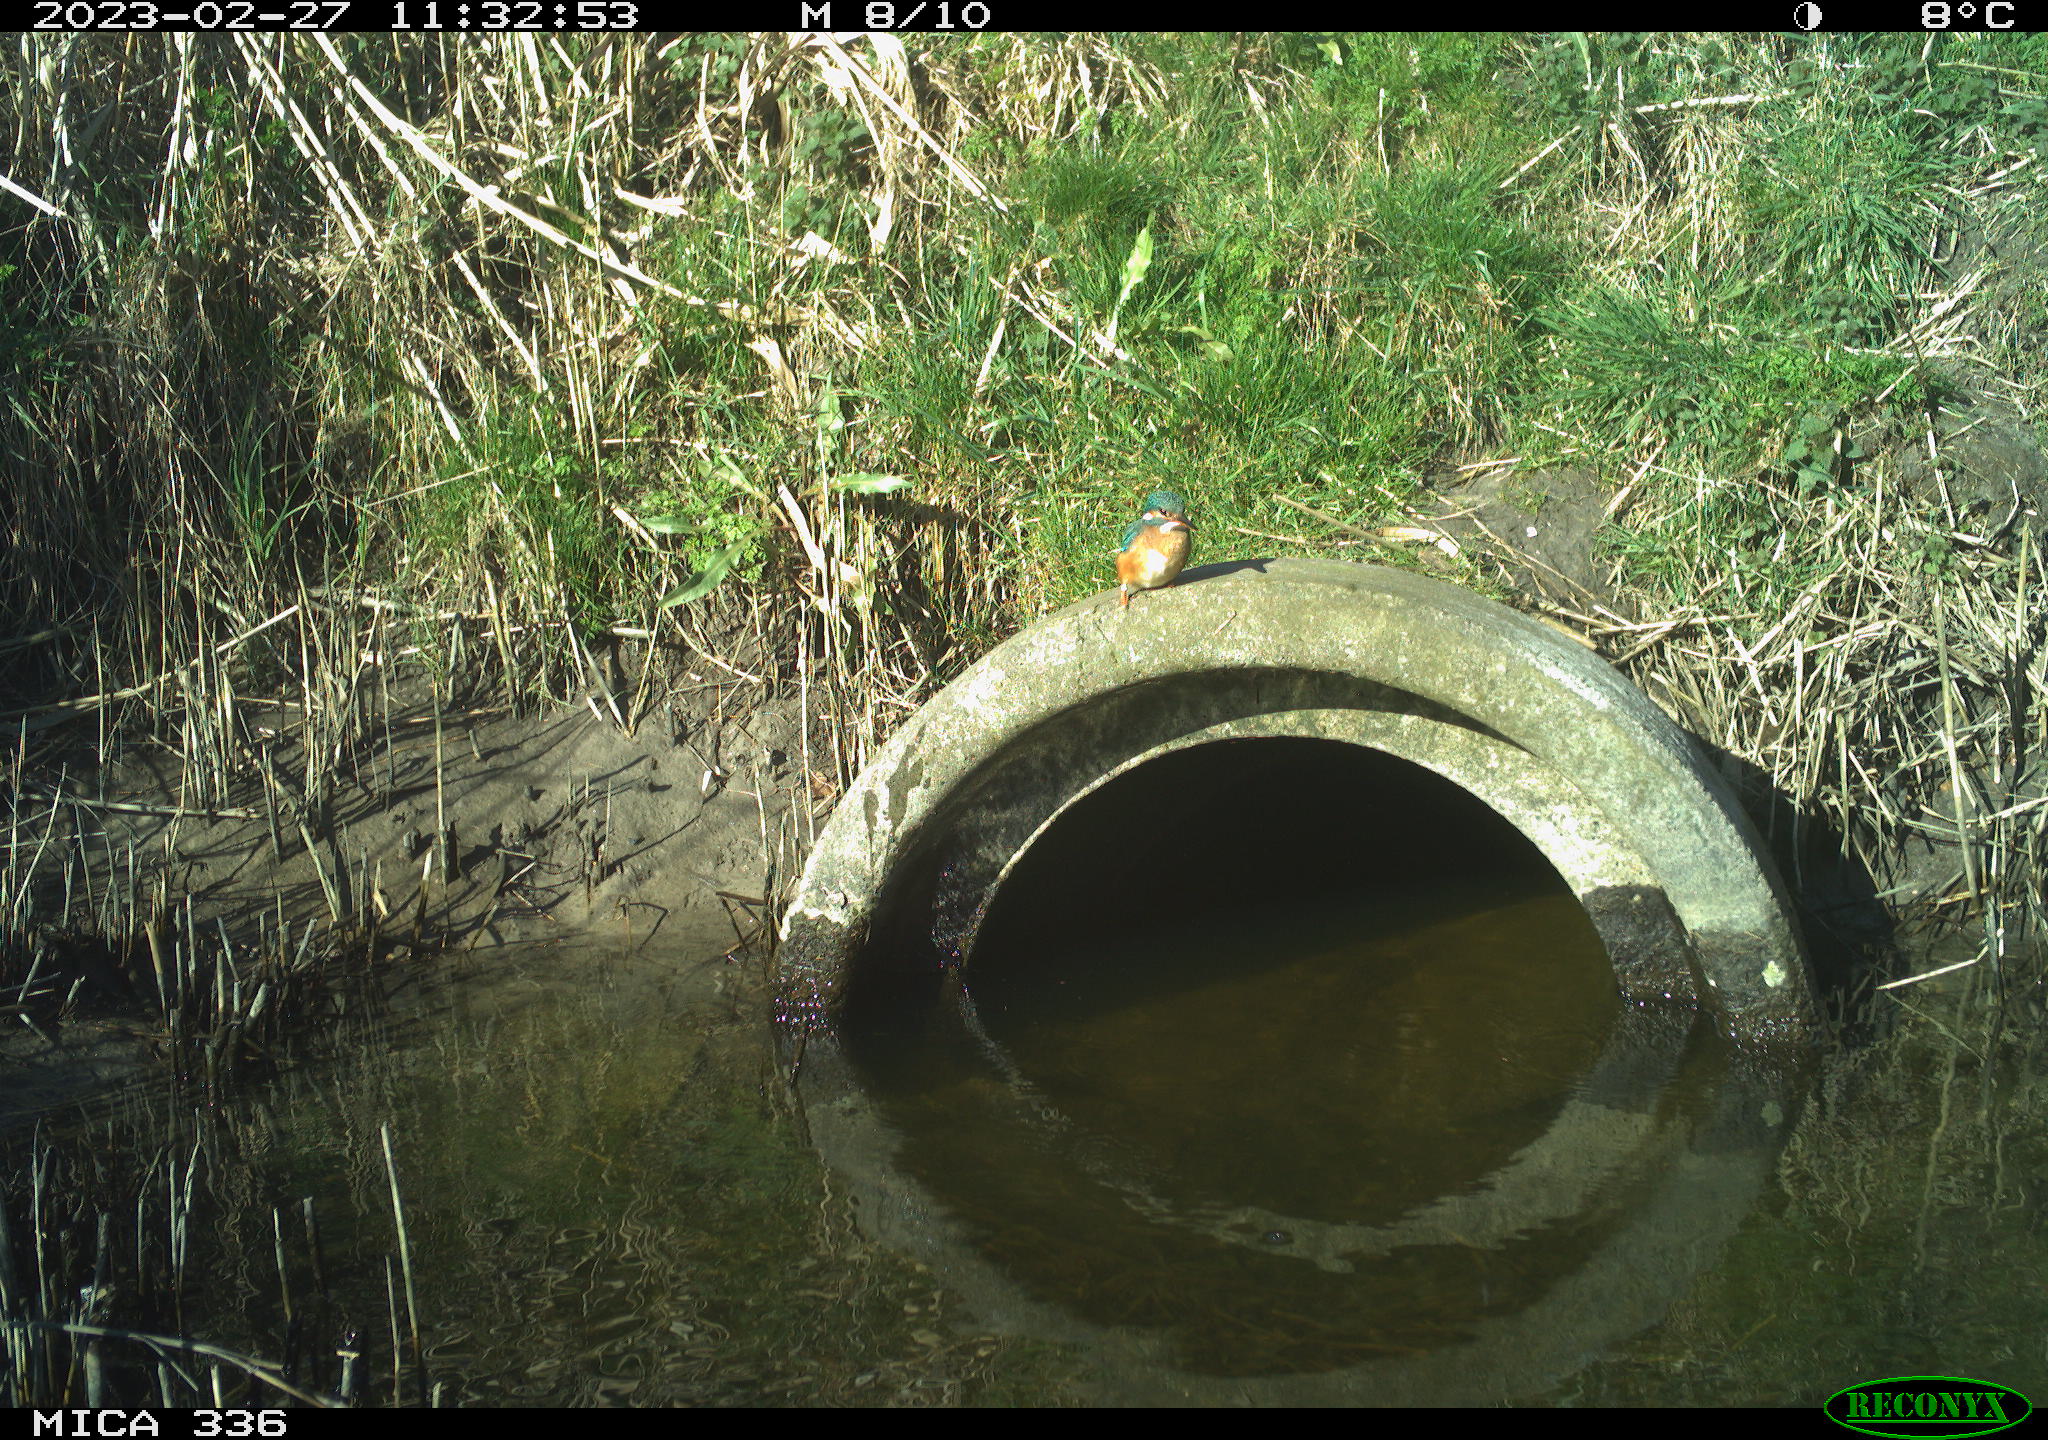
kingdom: Animalia
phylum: Chordata
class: Aves
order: Coraciiformes
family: Alcedinidae
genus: Alcedo
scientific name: Alcedo atthis
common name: Common kingfisher
